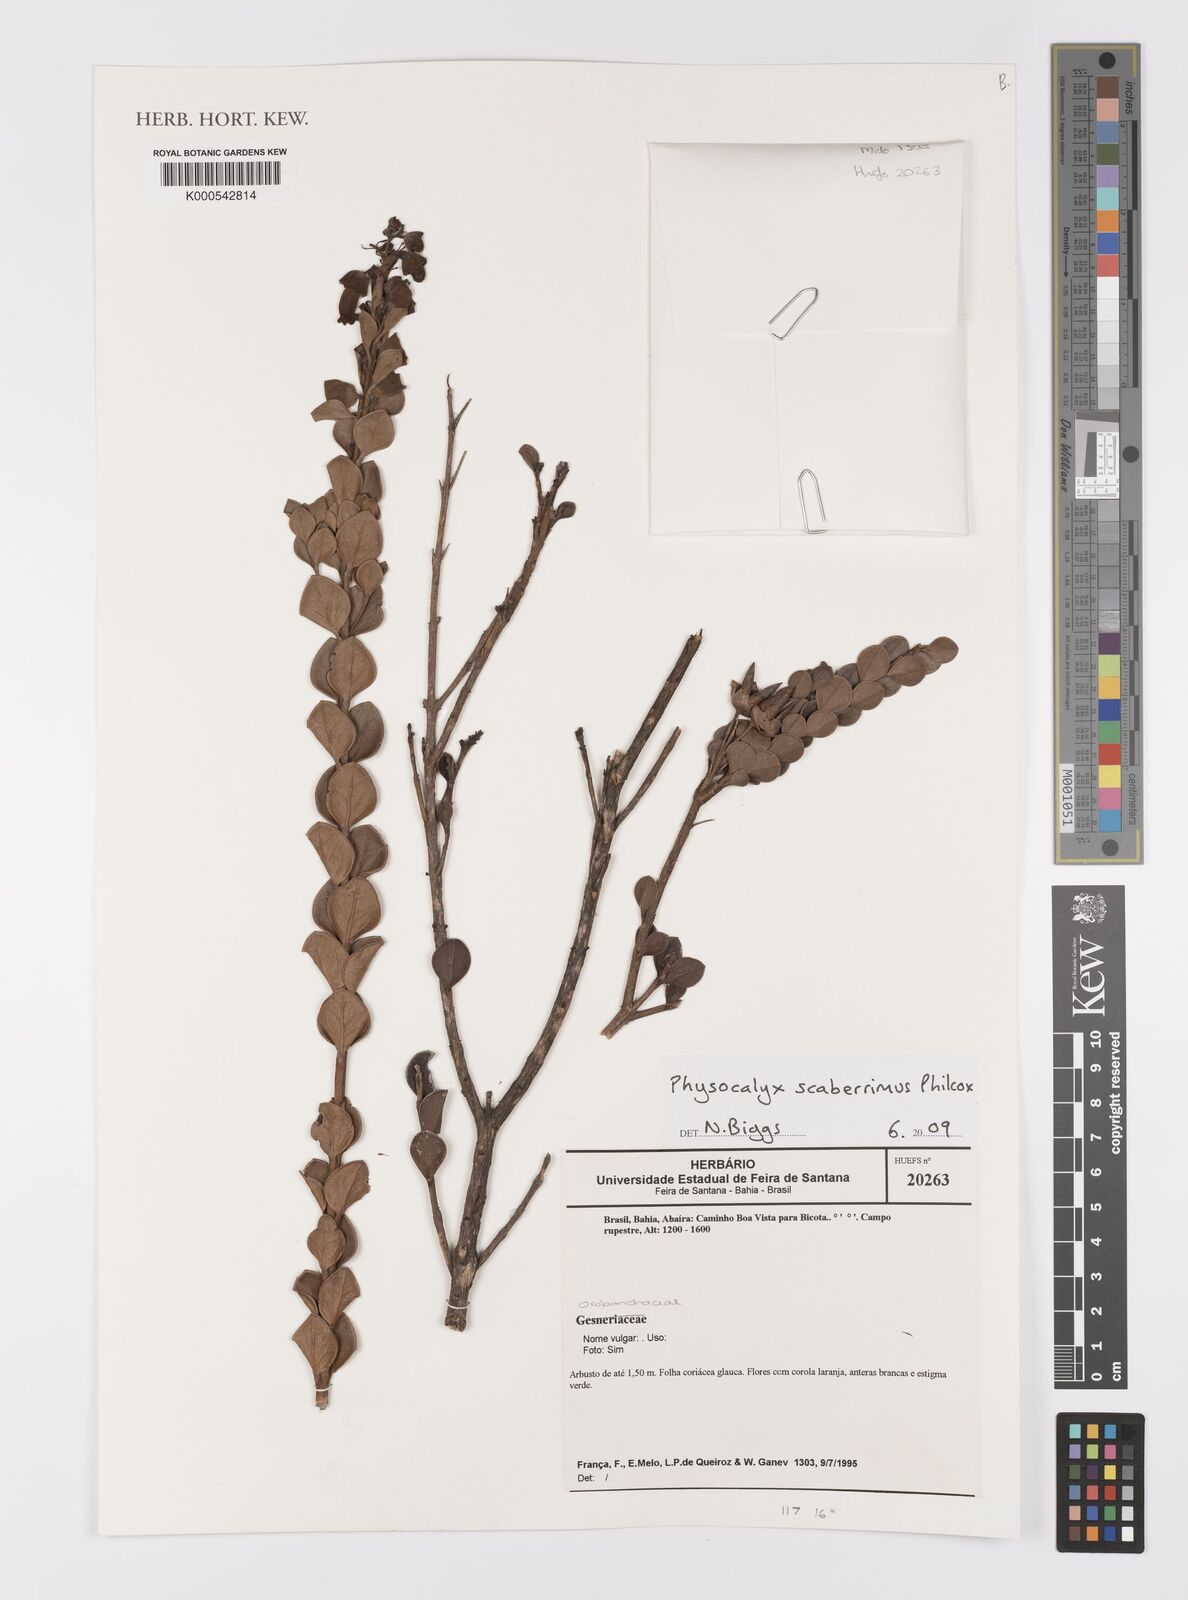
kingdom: Plantae
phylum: Tracheophyta
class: Magnoliopsida
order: Lamiales
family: Orobanchaceae
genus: Physocalyx
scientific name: Physocalyx scaberrimus
